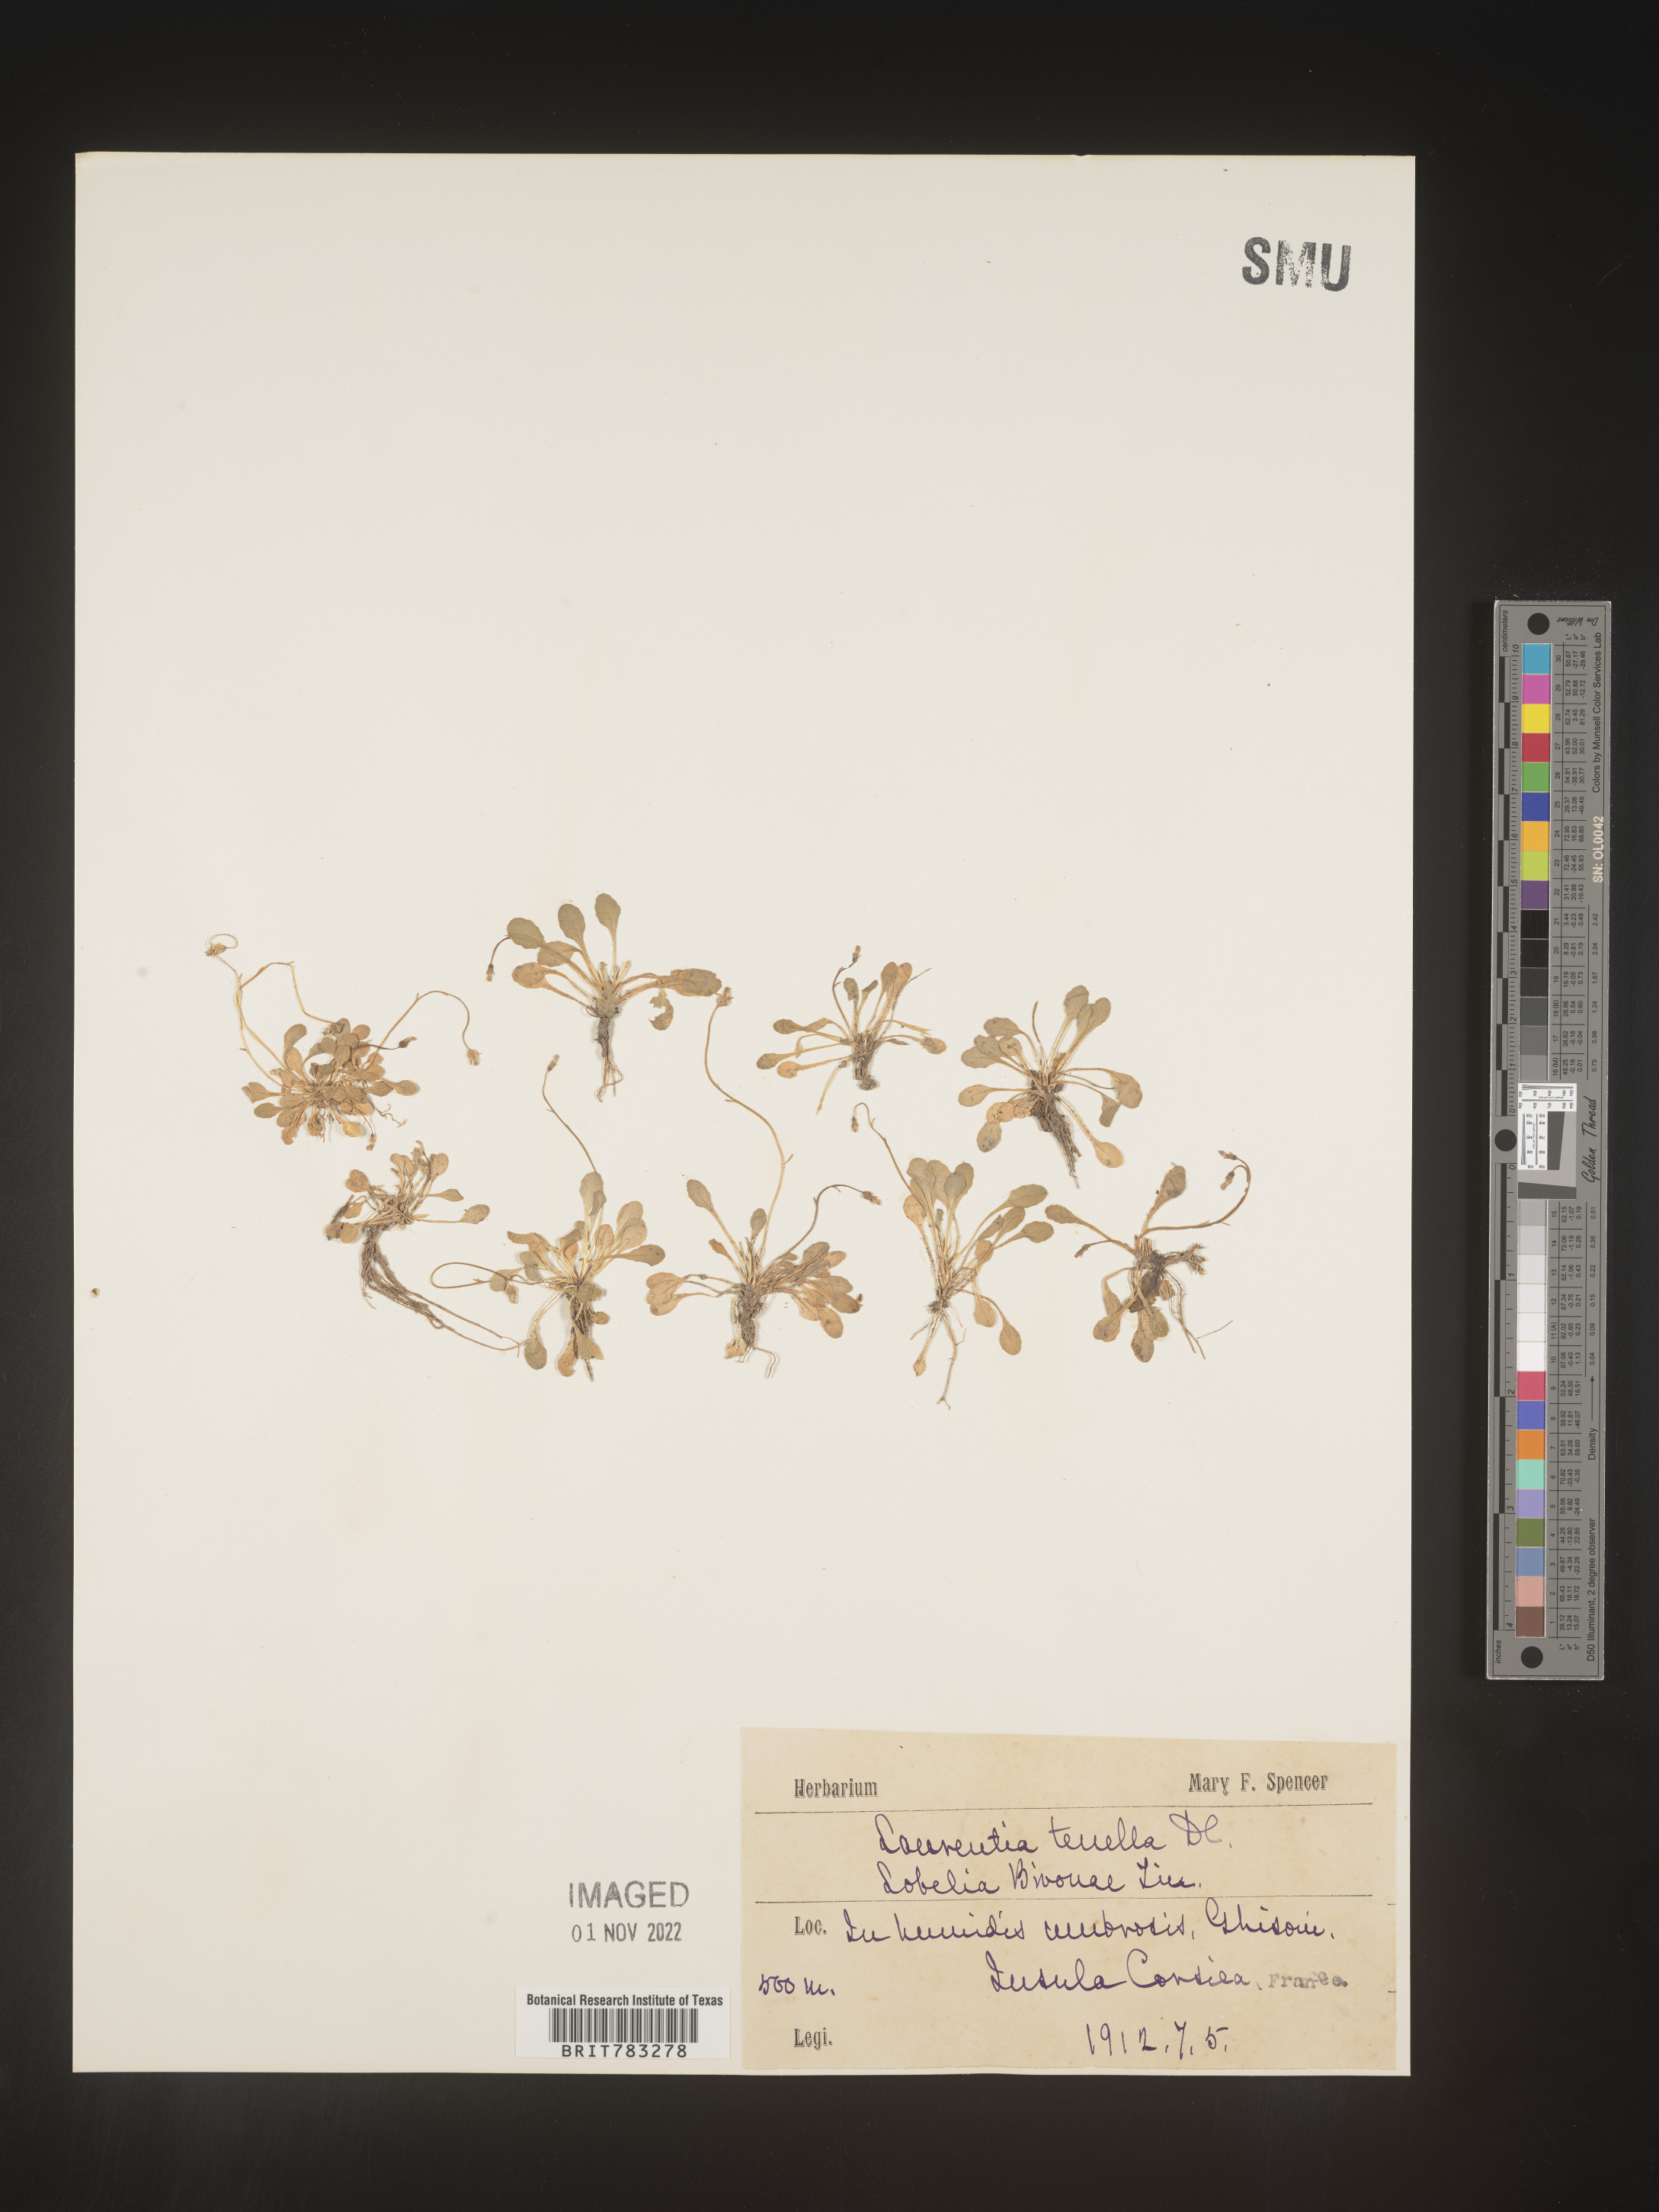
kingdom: Plantae
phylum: Tracheophyta
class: Magnoliopsida
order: Asterales
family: Campanulaceae
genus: Lobelia
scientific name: Lobelia
